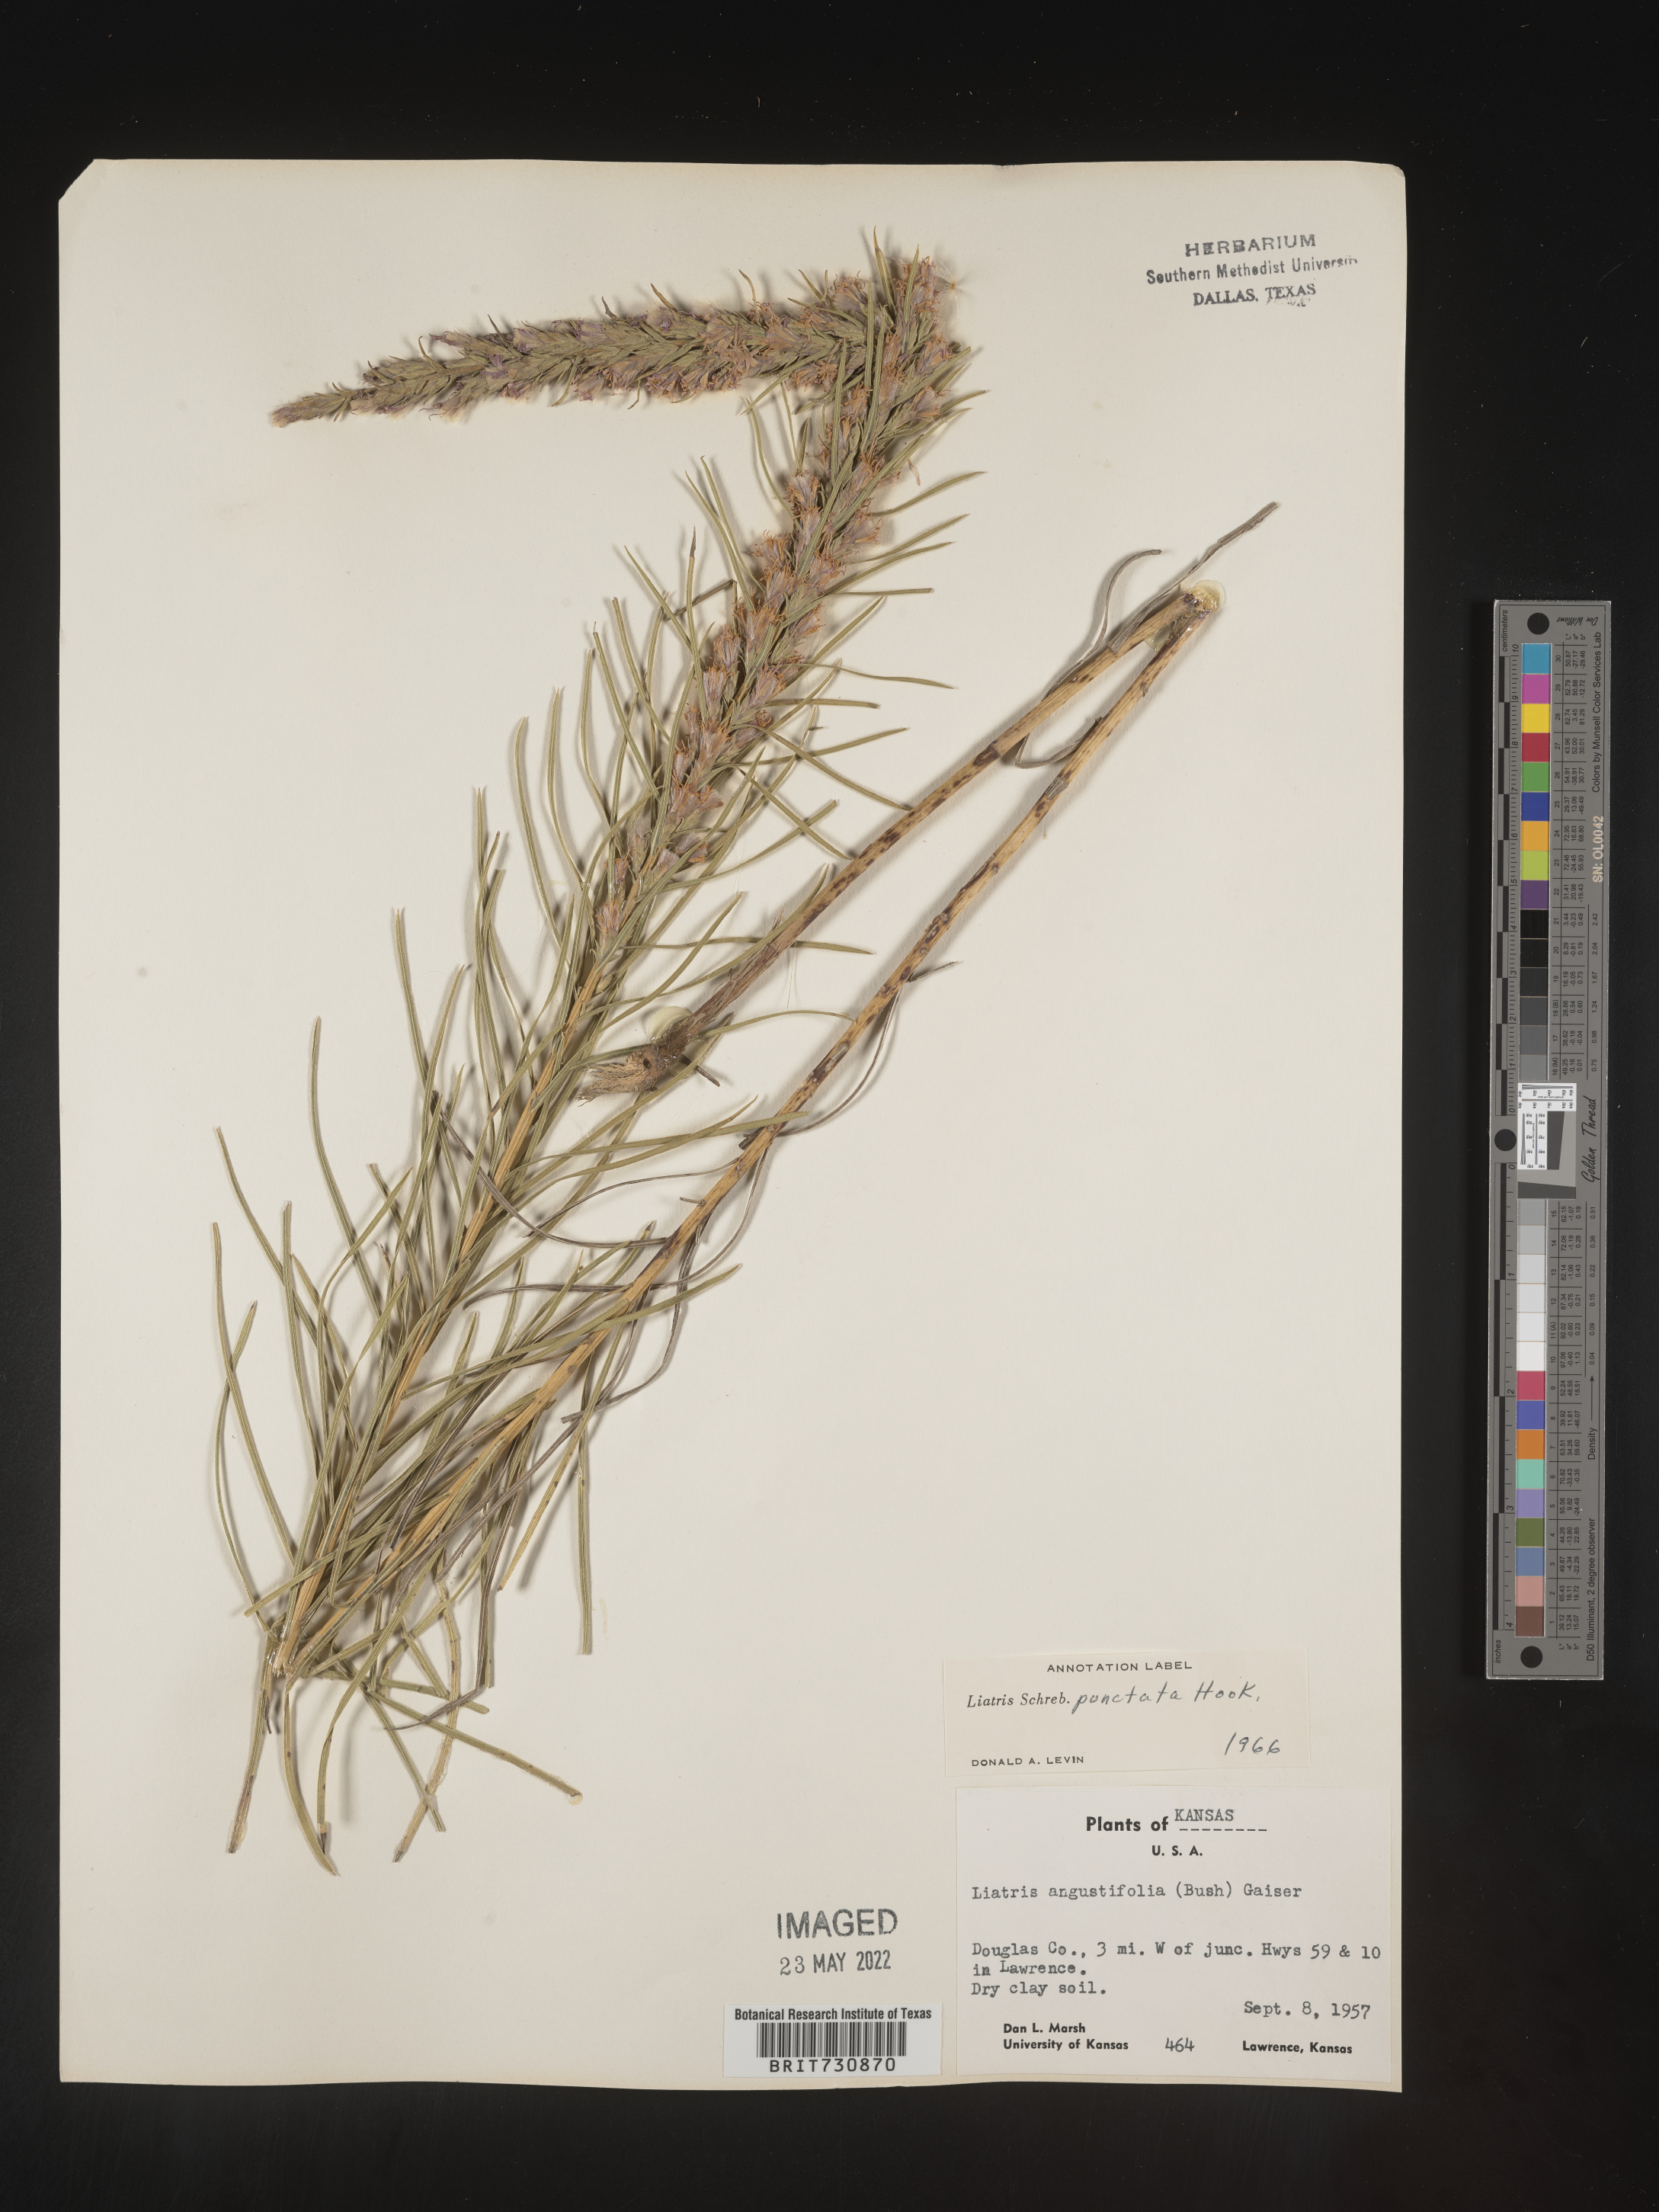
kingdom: Plantae
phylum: Tracheophyta
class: Magnoliopsida
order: Asterales
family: Asteraceae
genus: Liatris
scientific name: Liatris punctata
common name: Dotted gayfeather
